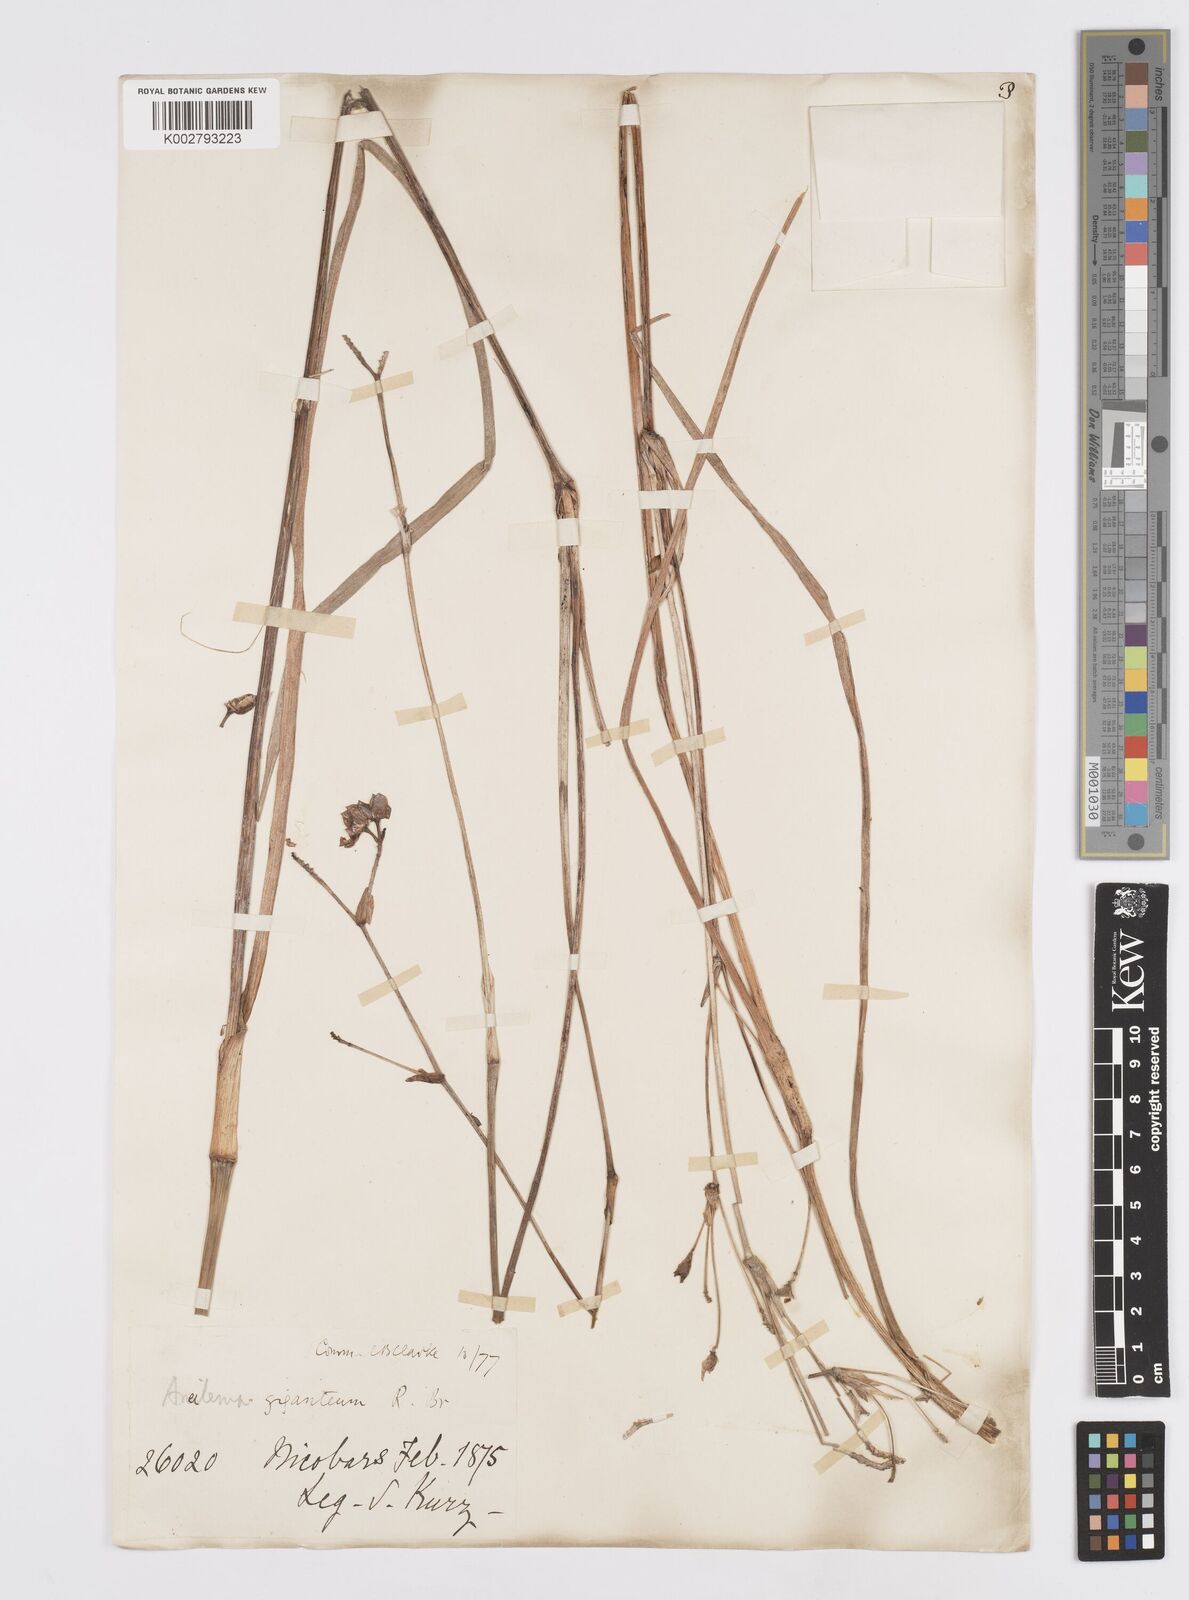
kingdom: Plantae
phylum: Tracheophyta
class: Liliopsida
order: Commelinales
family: Commelinaceae
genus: Murdannia
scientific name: Murdannia simplex
